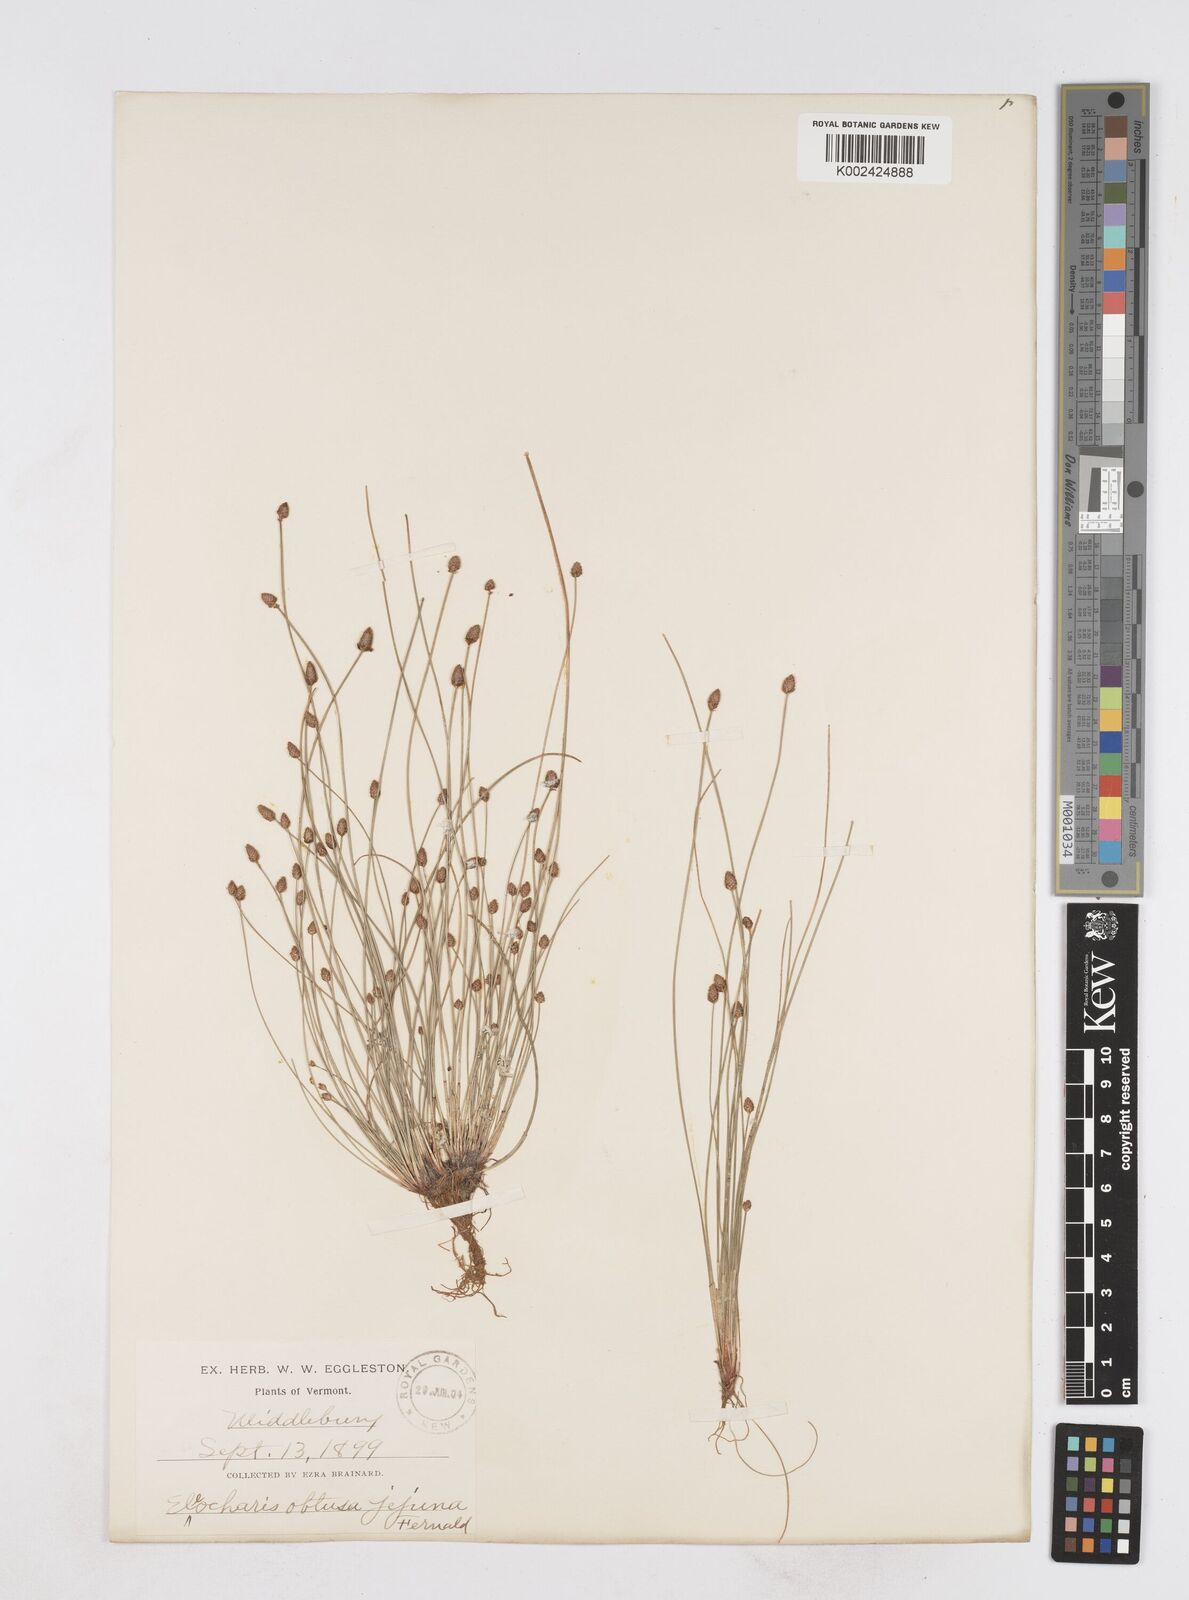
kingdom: Plantae
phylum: Tracheophyta
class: Liliopsida
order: Poales
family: Cyperaceae
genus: Eleocharis
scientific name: Eleocharis obtusa
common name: Blunt spikerush
